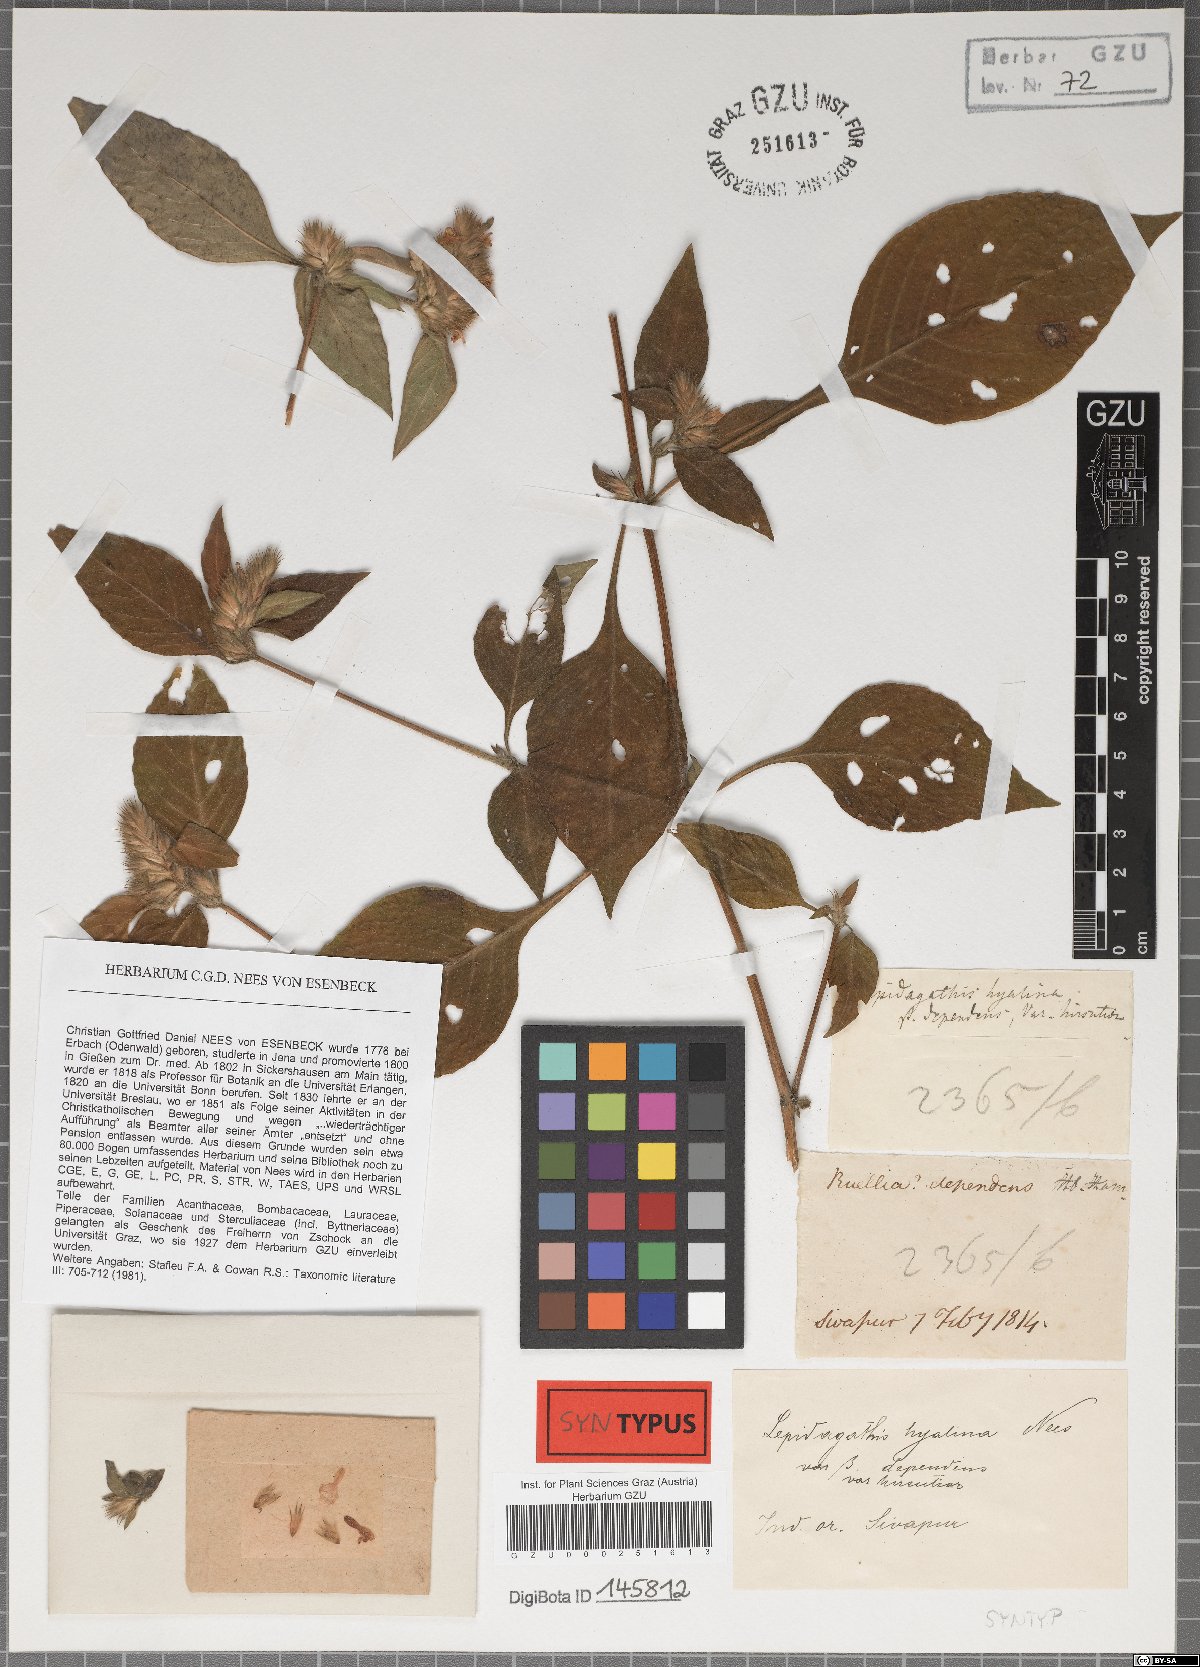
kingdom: Plantae
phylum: Tracheophyta
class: Magnoliopsida
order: Lamiales
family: Acanthaceae
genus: Lepidagathis
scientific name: Lepidagathis incurva
